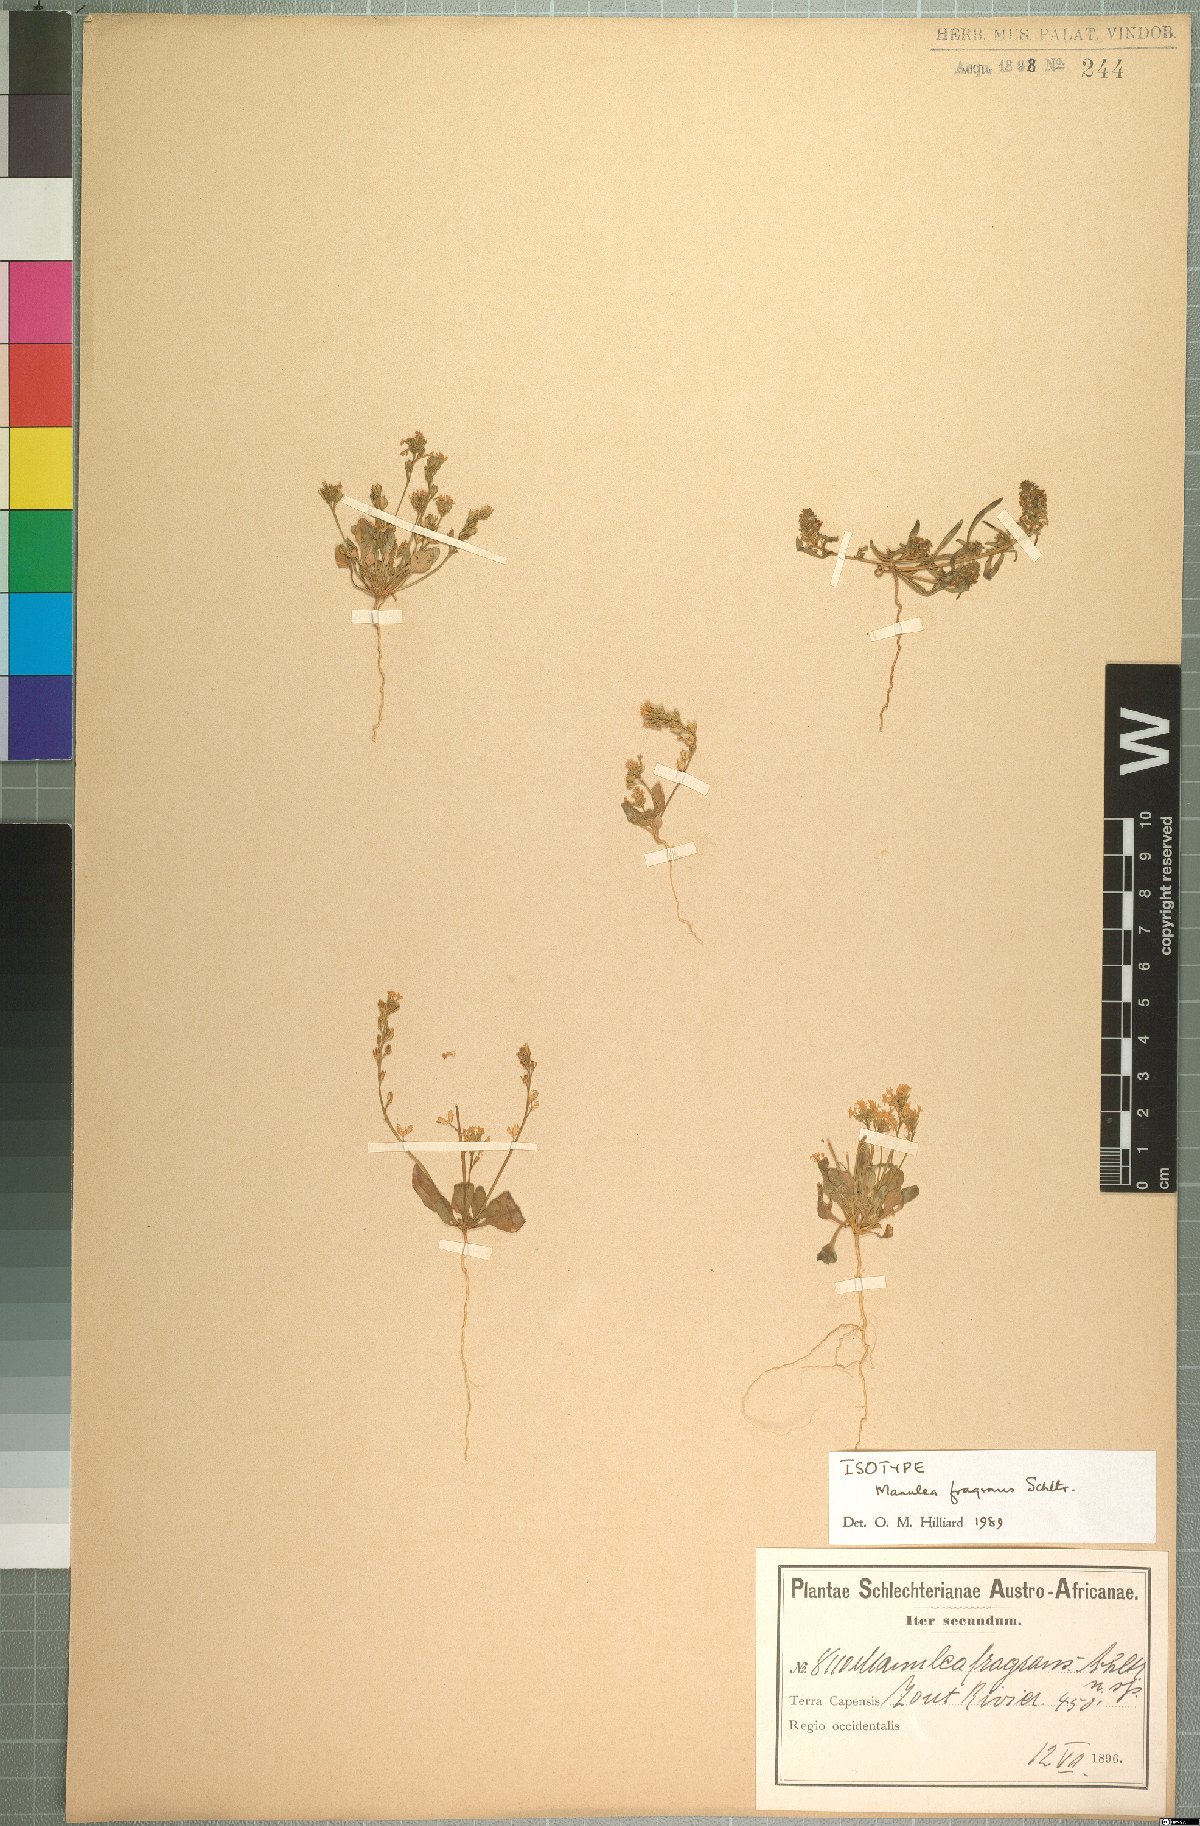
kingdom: Plantae
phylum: Tracheophyta
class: Magnoliopsida
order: Lamiales
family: Scrophulariaceae
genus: Manulea
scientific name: Manulea fragrans
